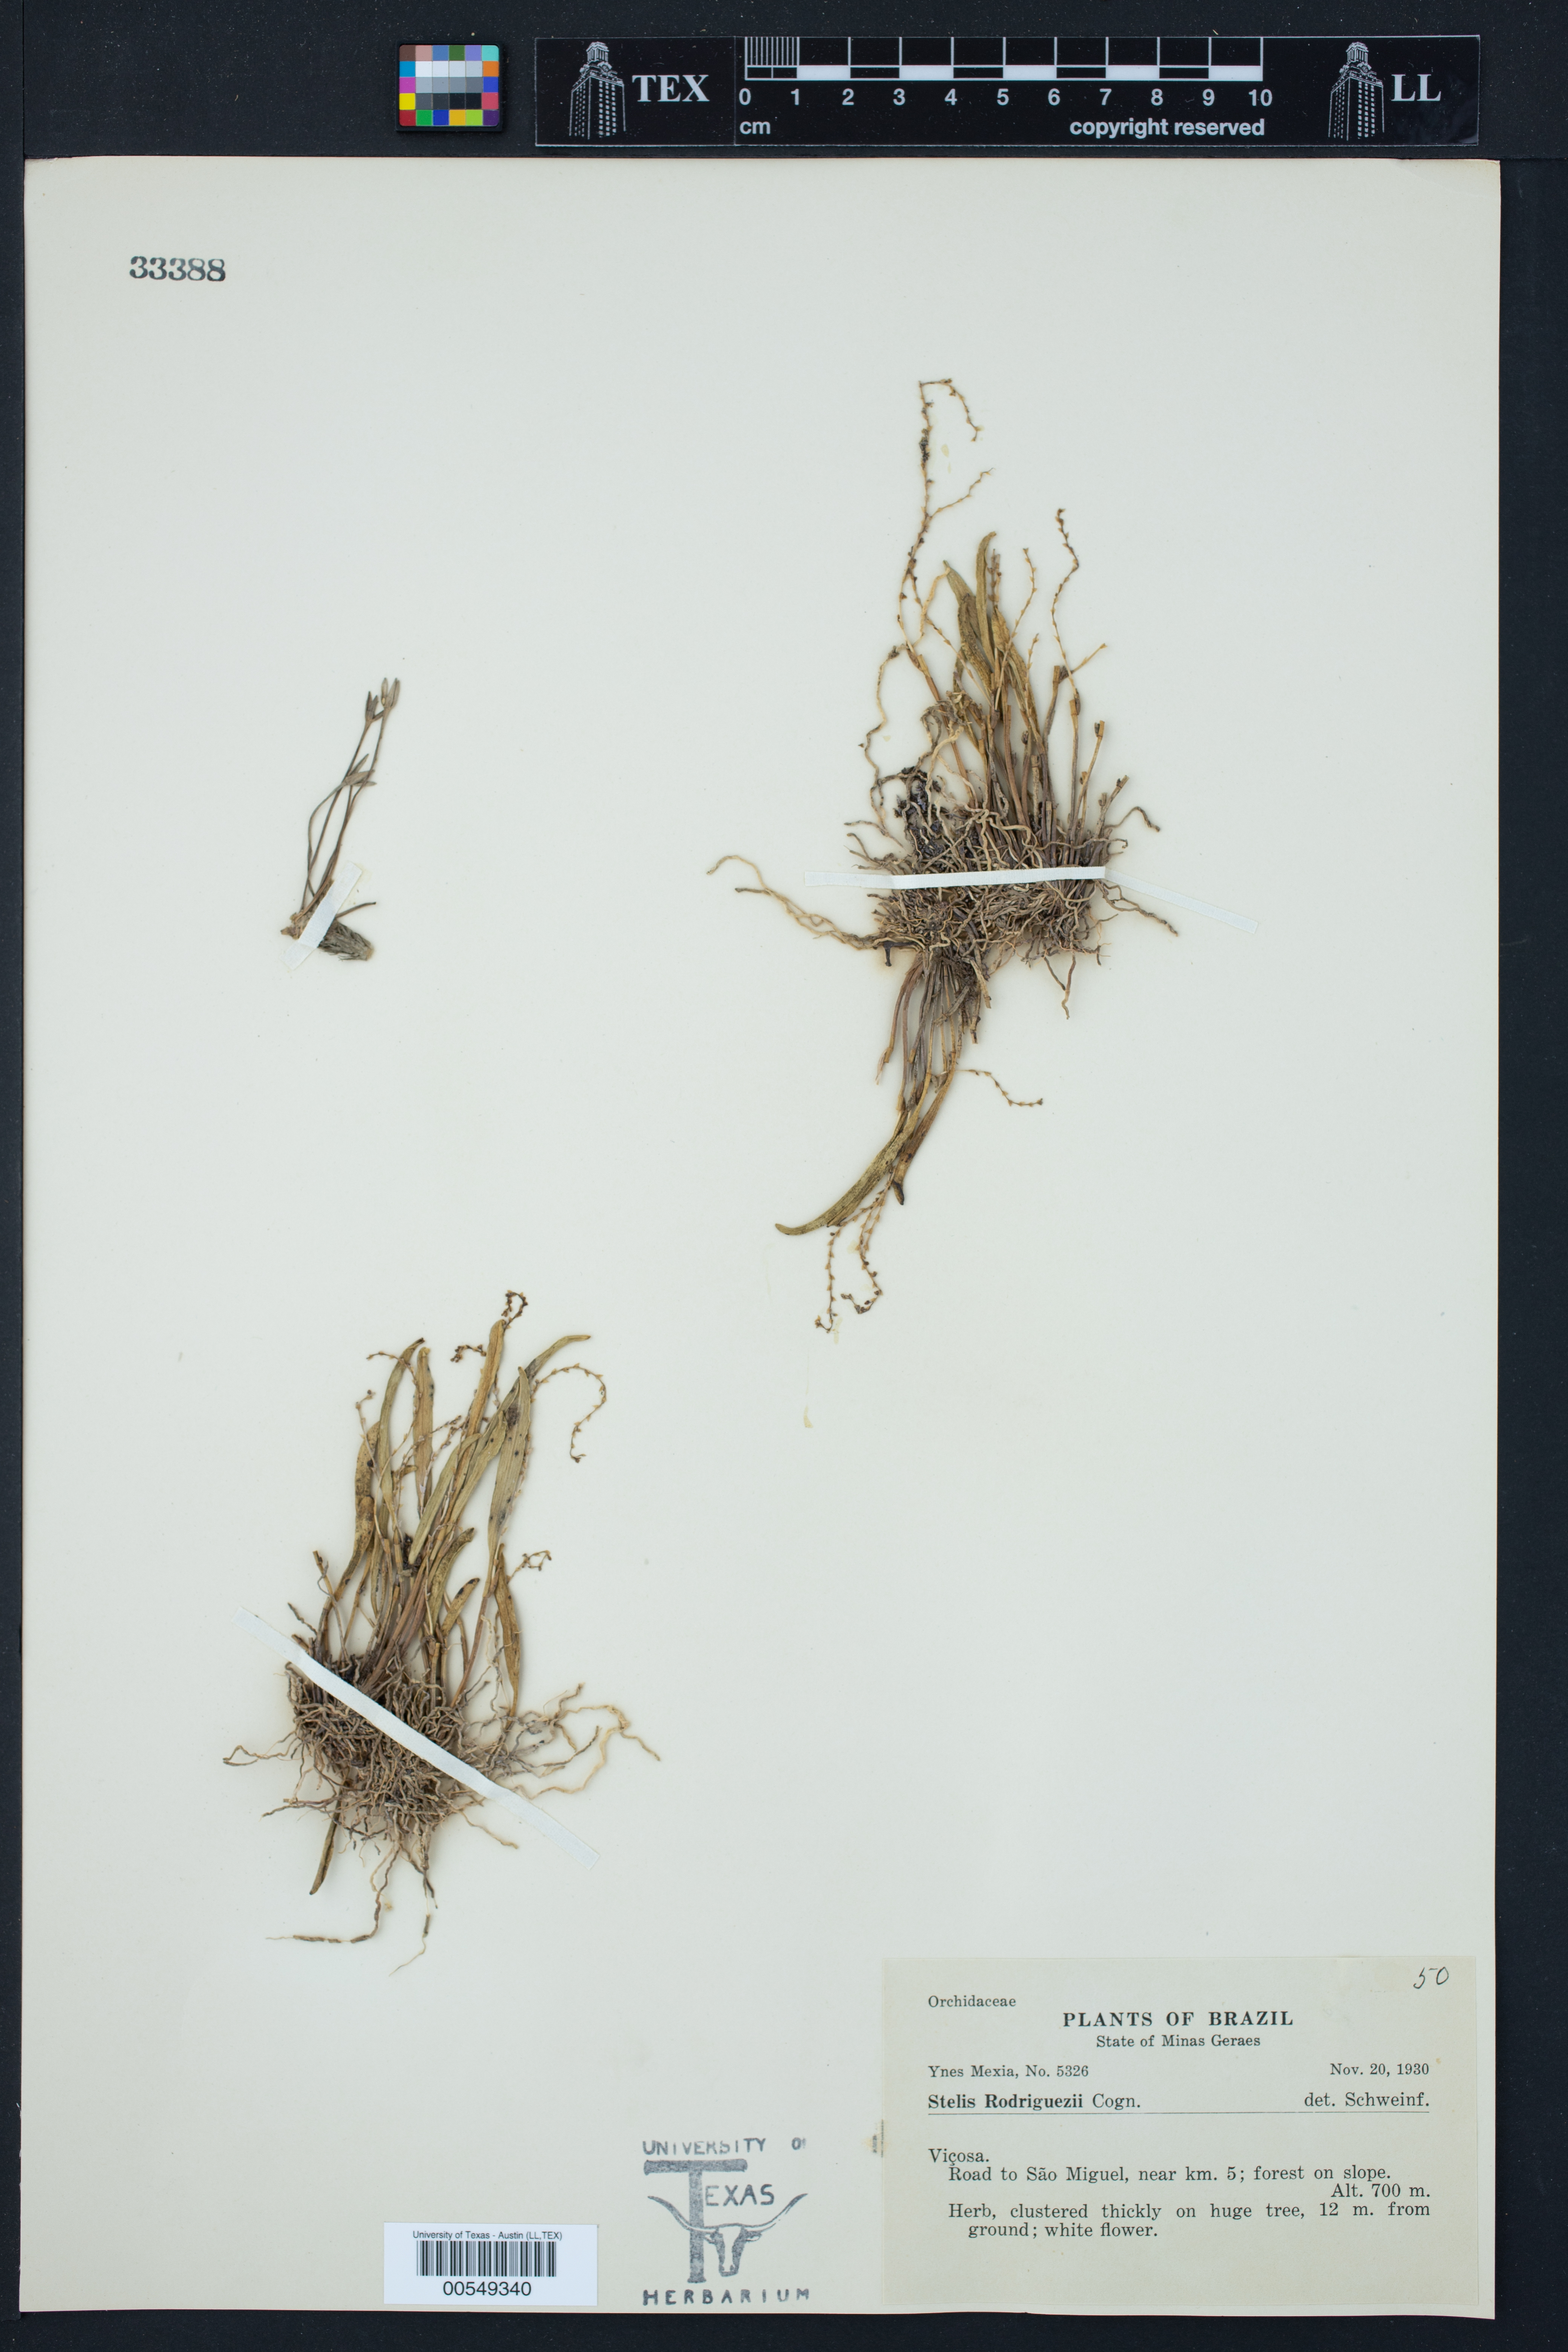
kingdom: Plantae
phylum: Tracheophyta
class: Liliopsida
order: Asparagales
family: Orchidaceae
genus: Stelis
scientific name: Stelis aprica
